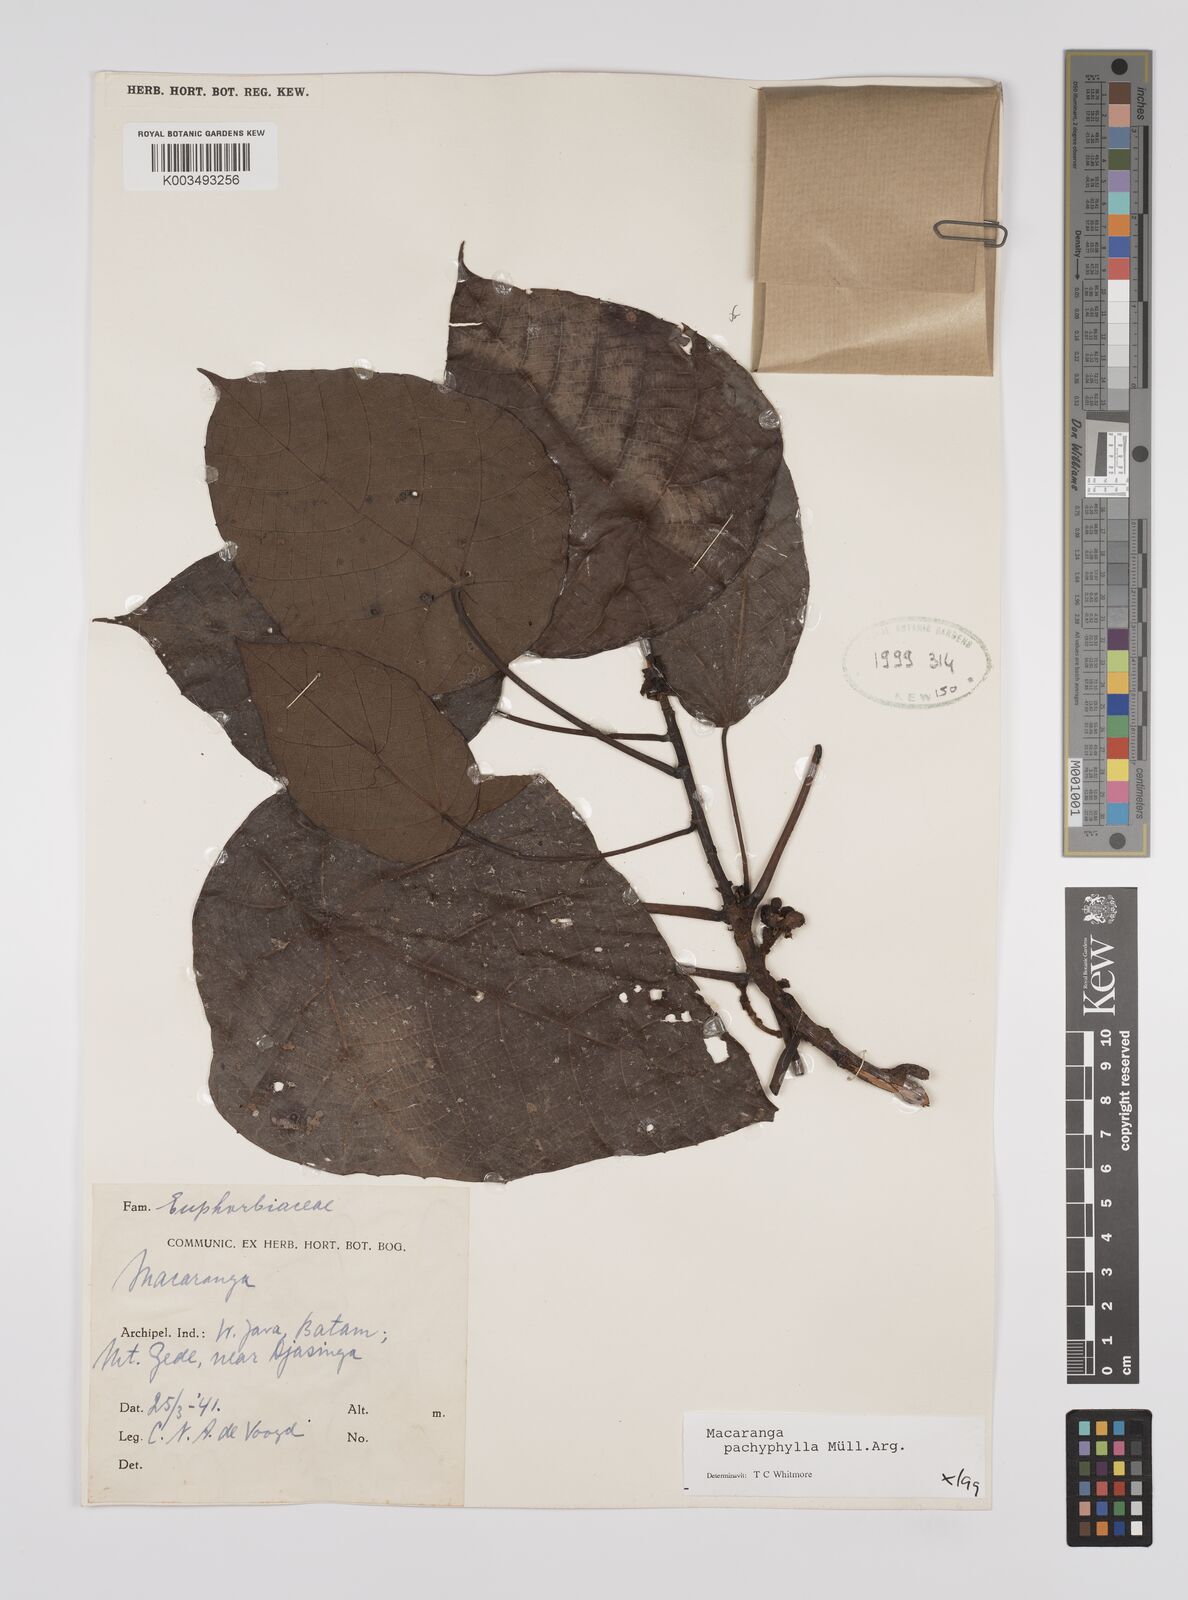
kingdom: Plantae
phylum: Tracheophyta
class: Magnoliopsida
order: Malpighiales
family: Euphorbiaceae
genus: Macaranga
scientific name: Macaranga pachyphylla
